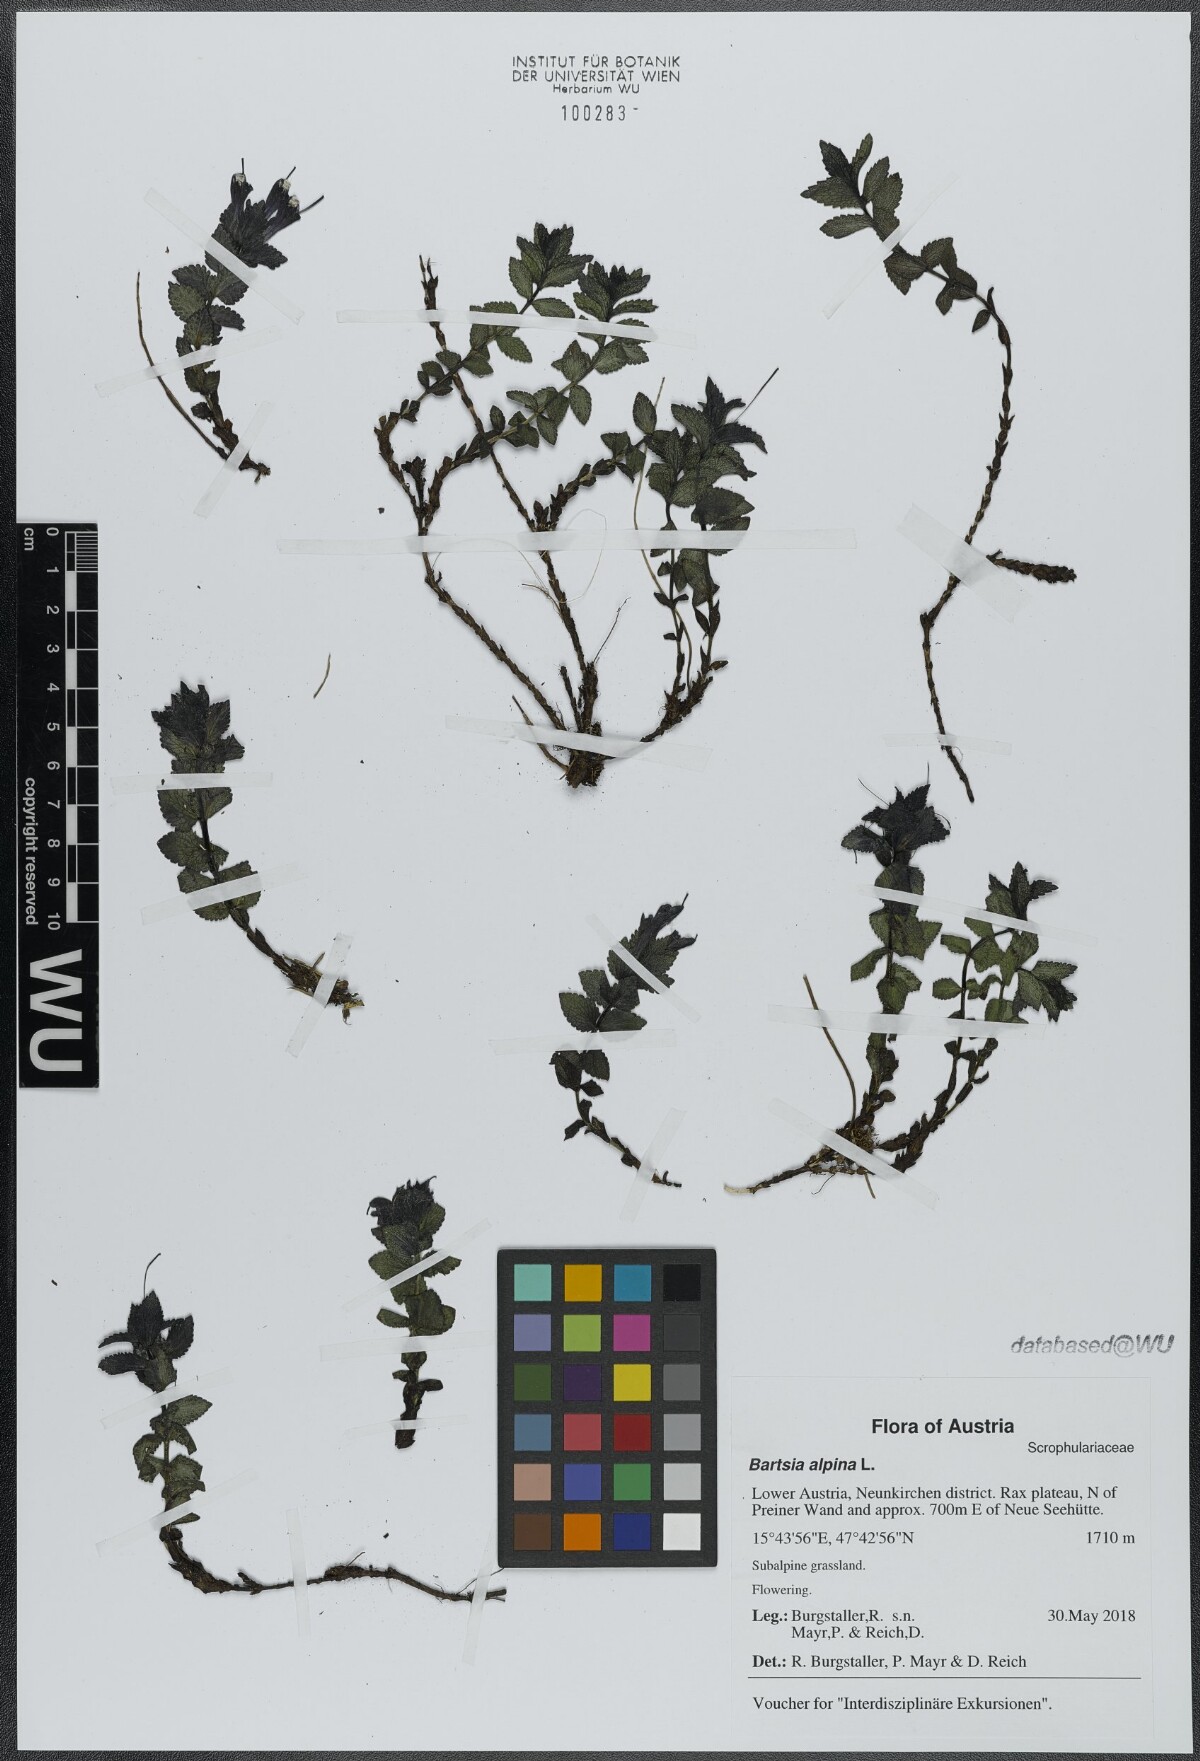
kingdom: Plantae
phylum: Tracheophyta
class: Magnoliopsida
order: Lamiales
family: Orobanchaceae
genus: Bartsia
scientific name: Bartsia alpina
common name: Alpine bartsia
